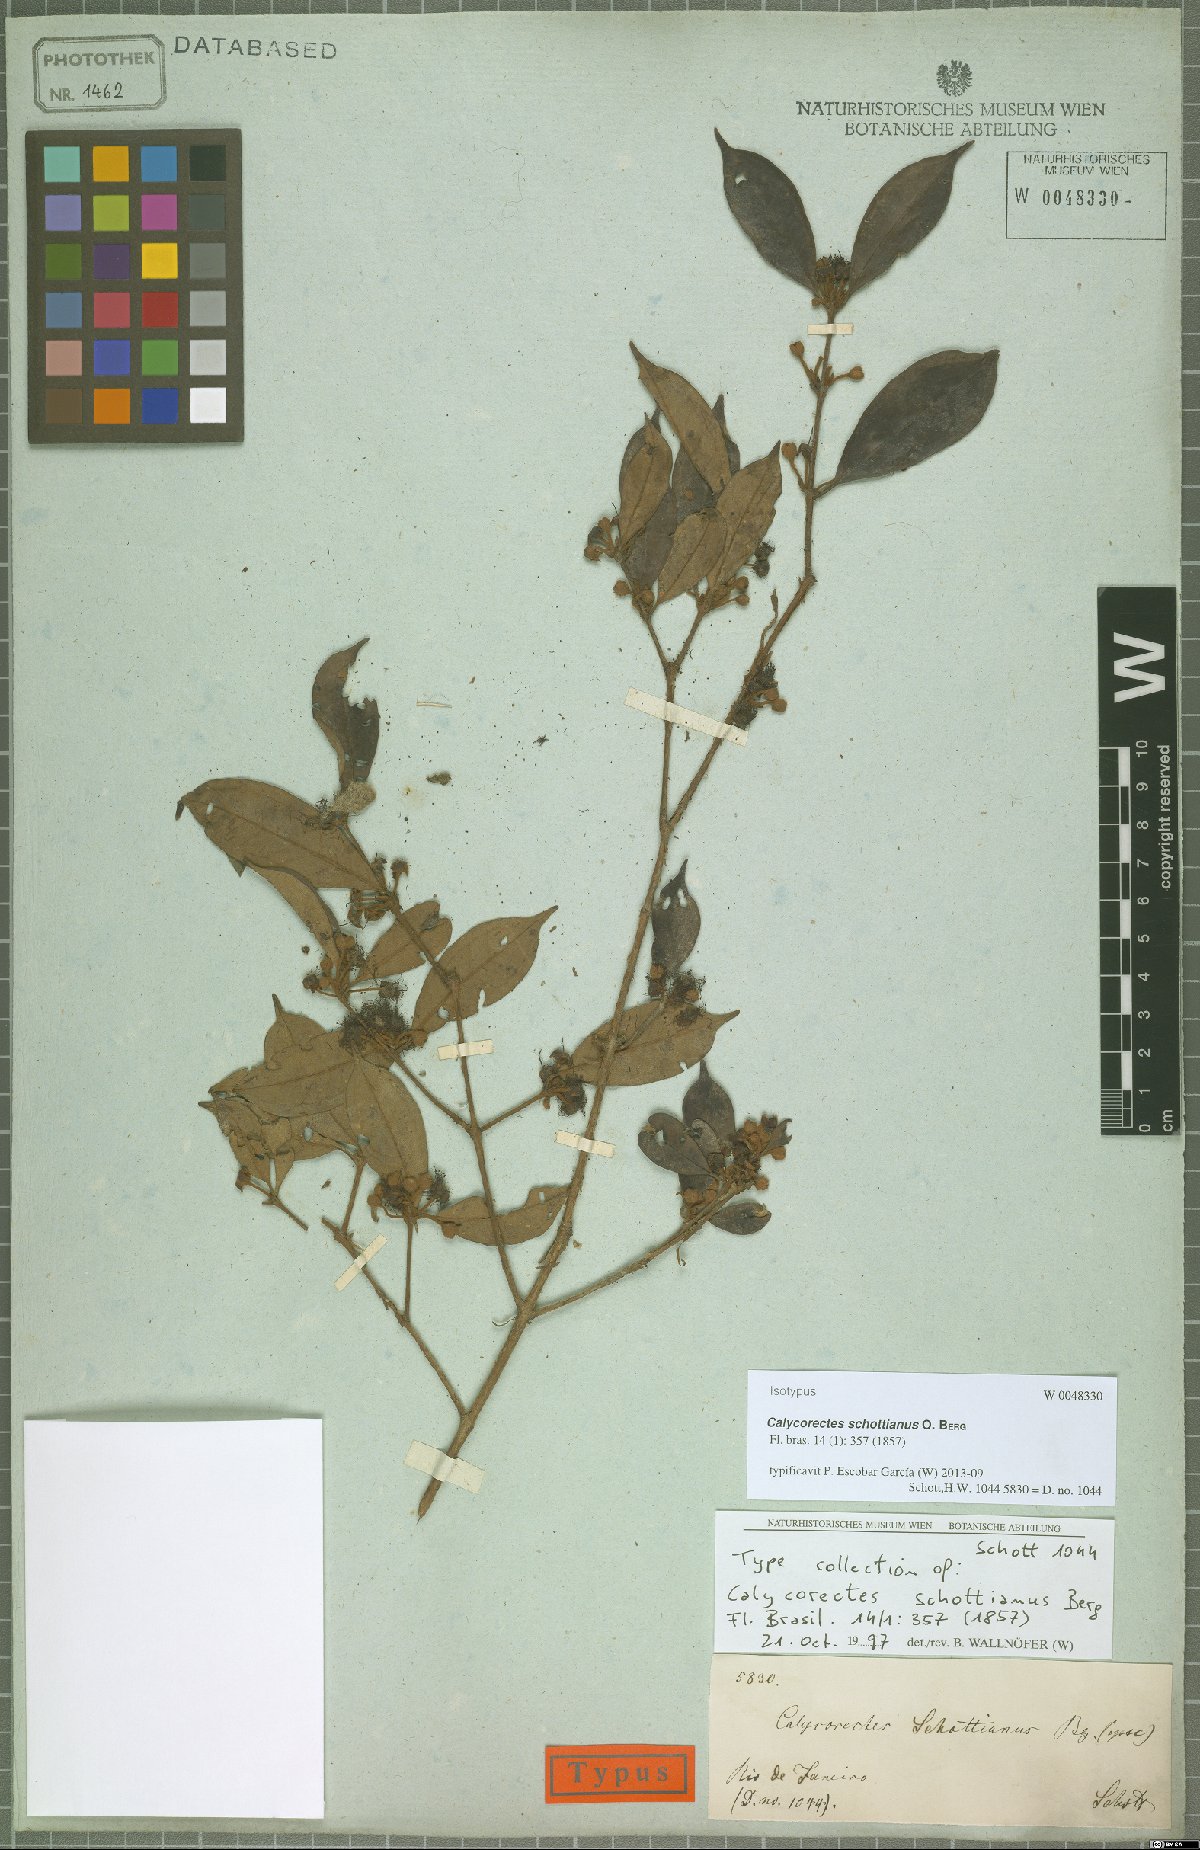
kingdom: Plantae
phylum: Tracheophyta
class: Magnoliopsida
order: Myrtales
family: Myrtaceae
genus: Calycorectes
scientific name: Calycorectes schottianus
